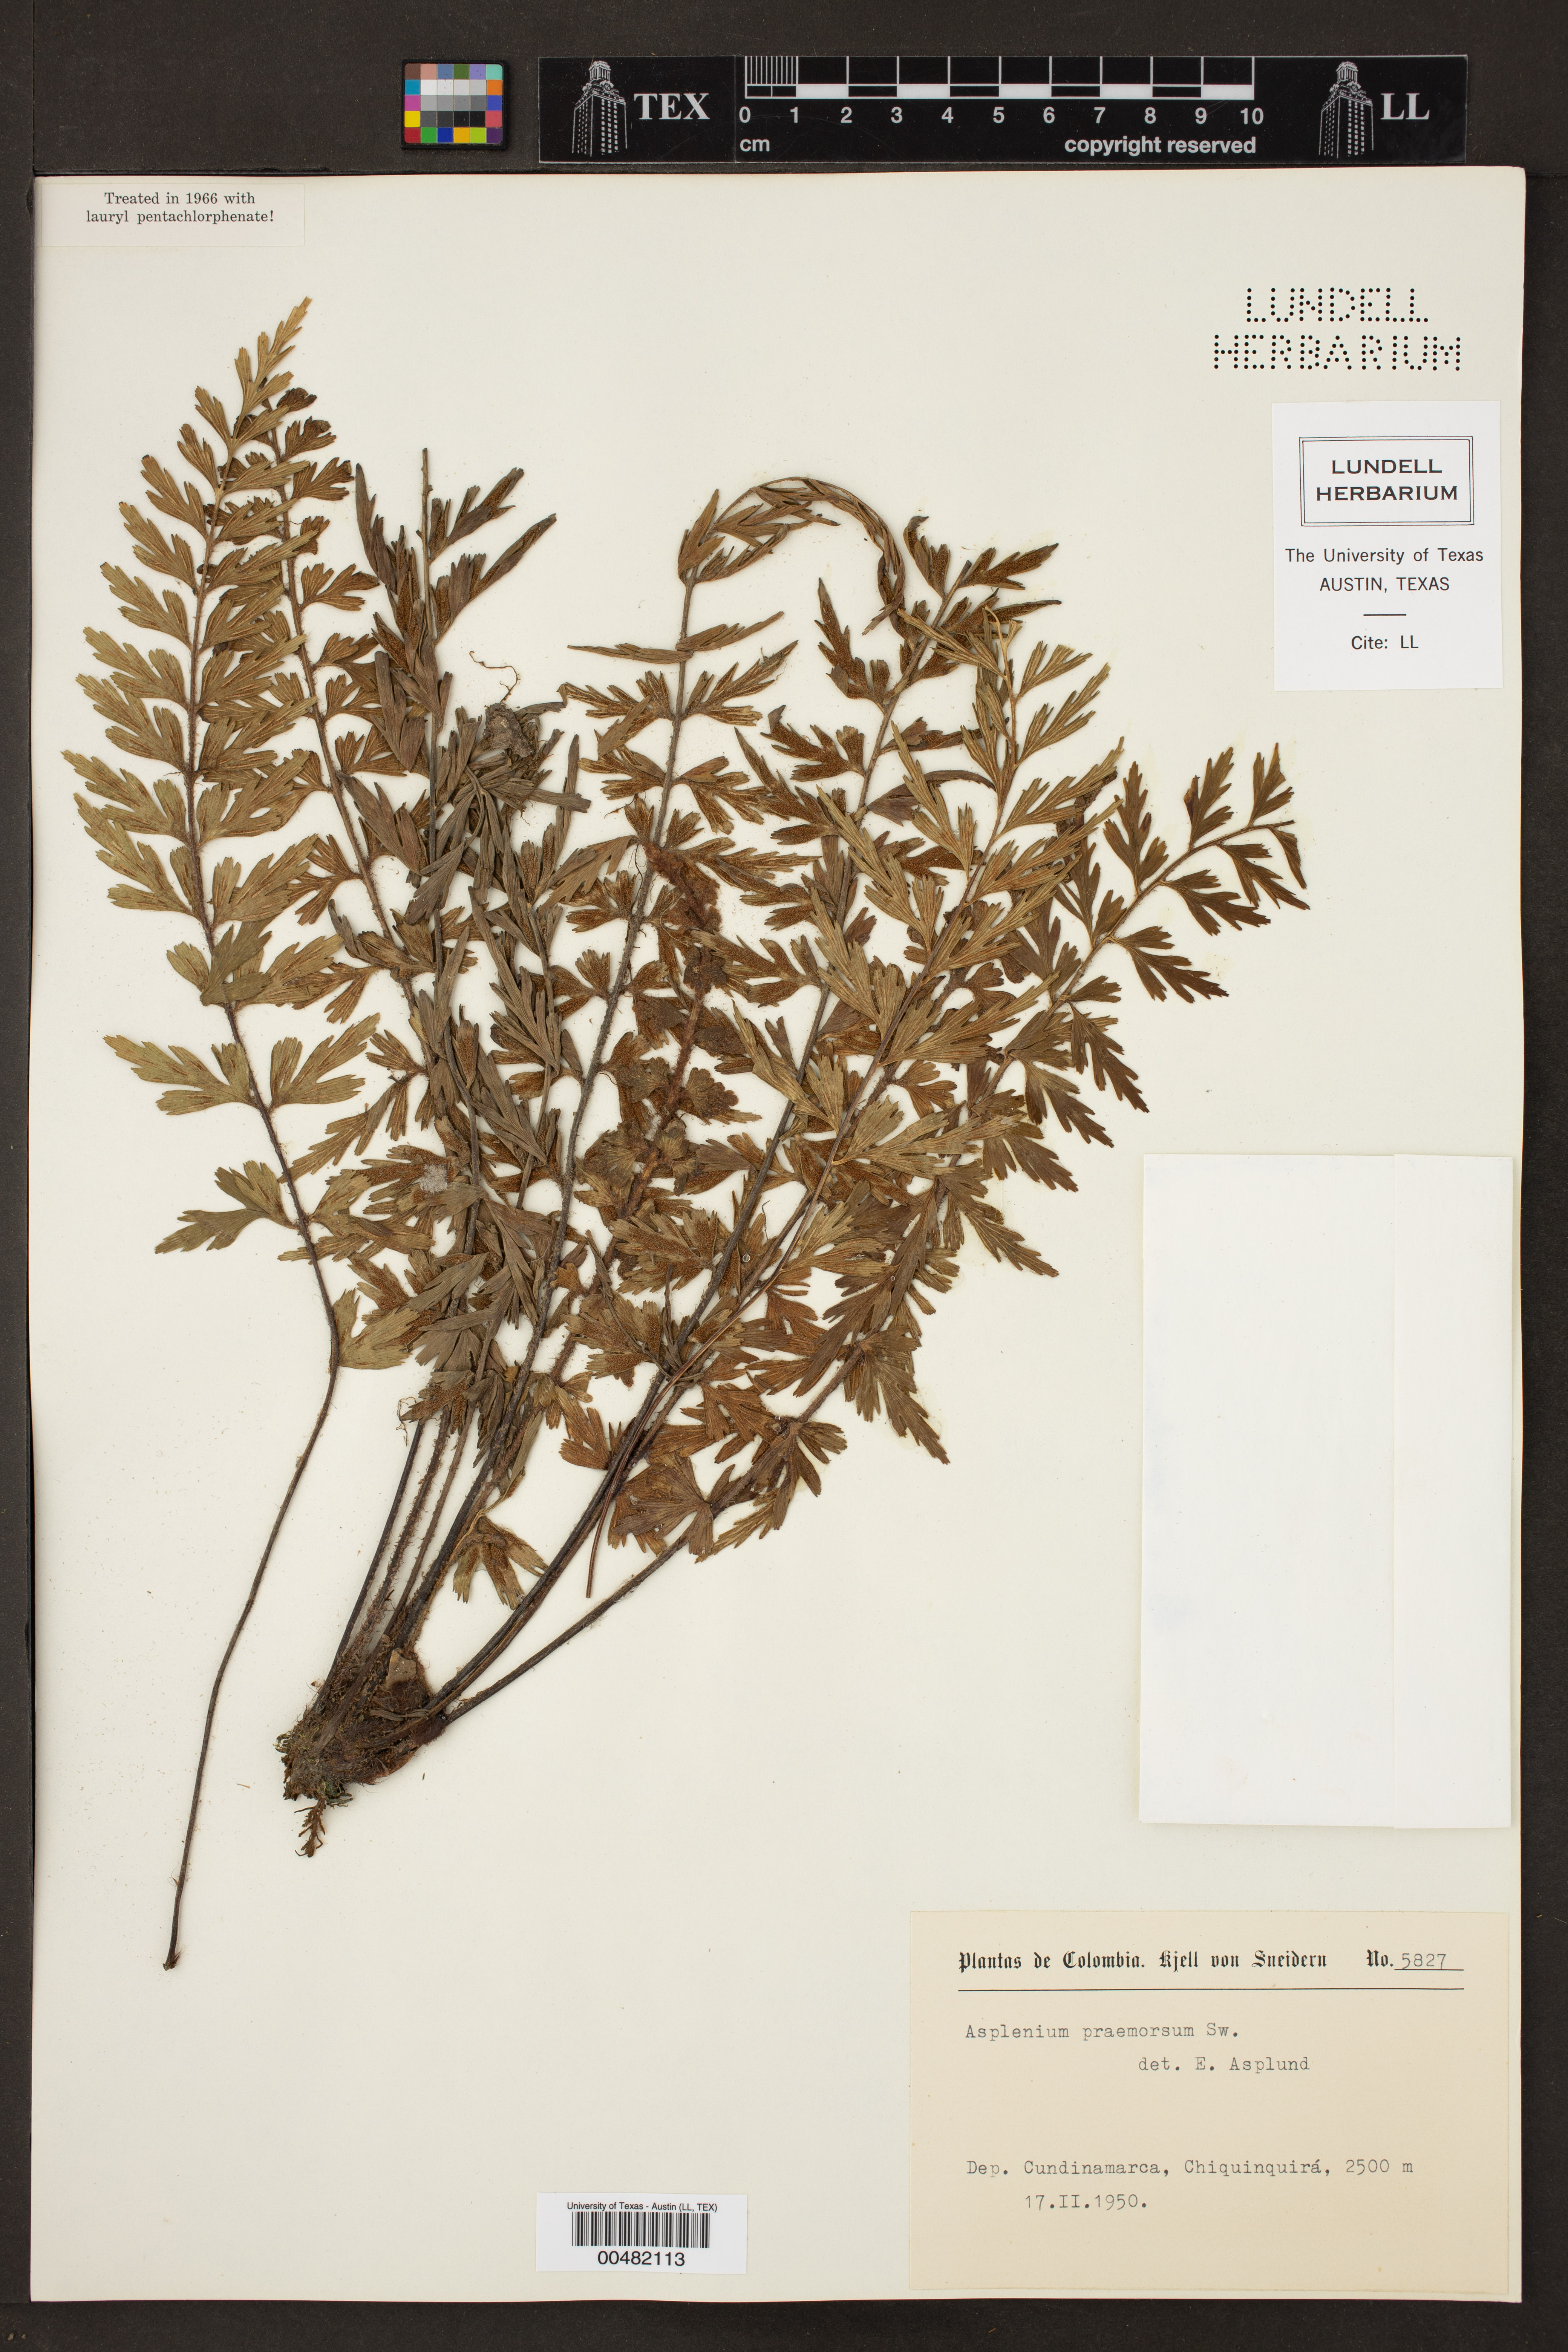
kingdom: Plantae
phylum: Tracheophyta
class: Polypodiopsida
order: Polypodiales
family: Aspleniaceae
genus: Asplenium
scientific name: Asplenium praemorsum
